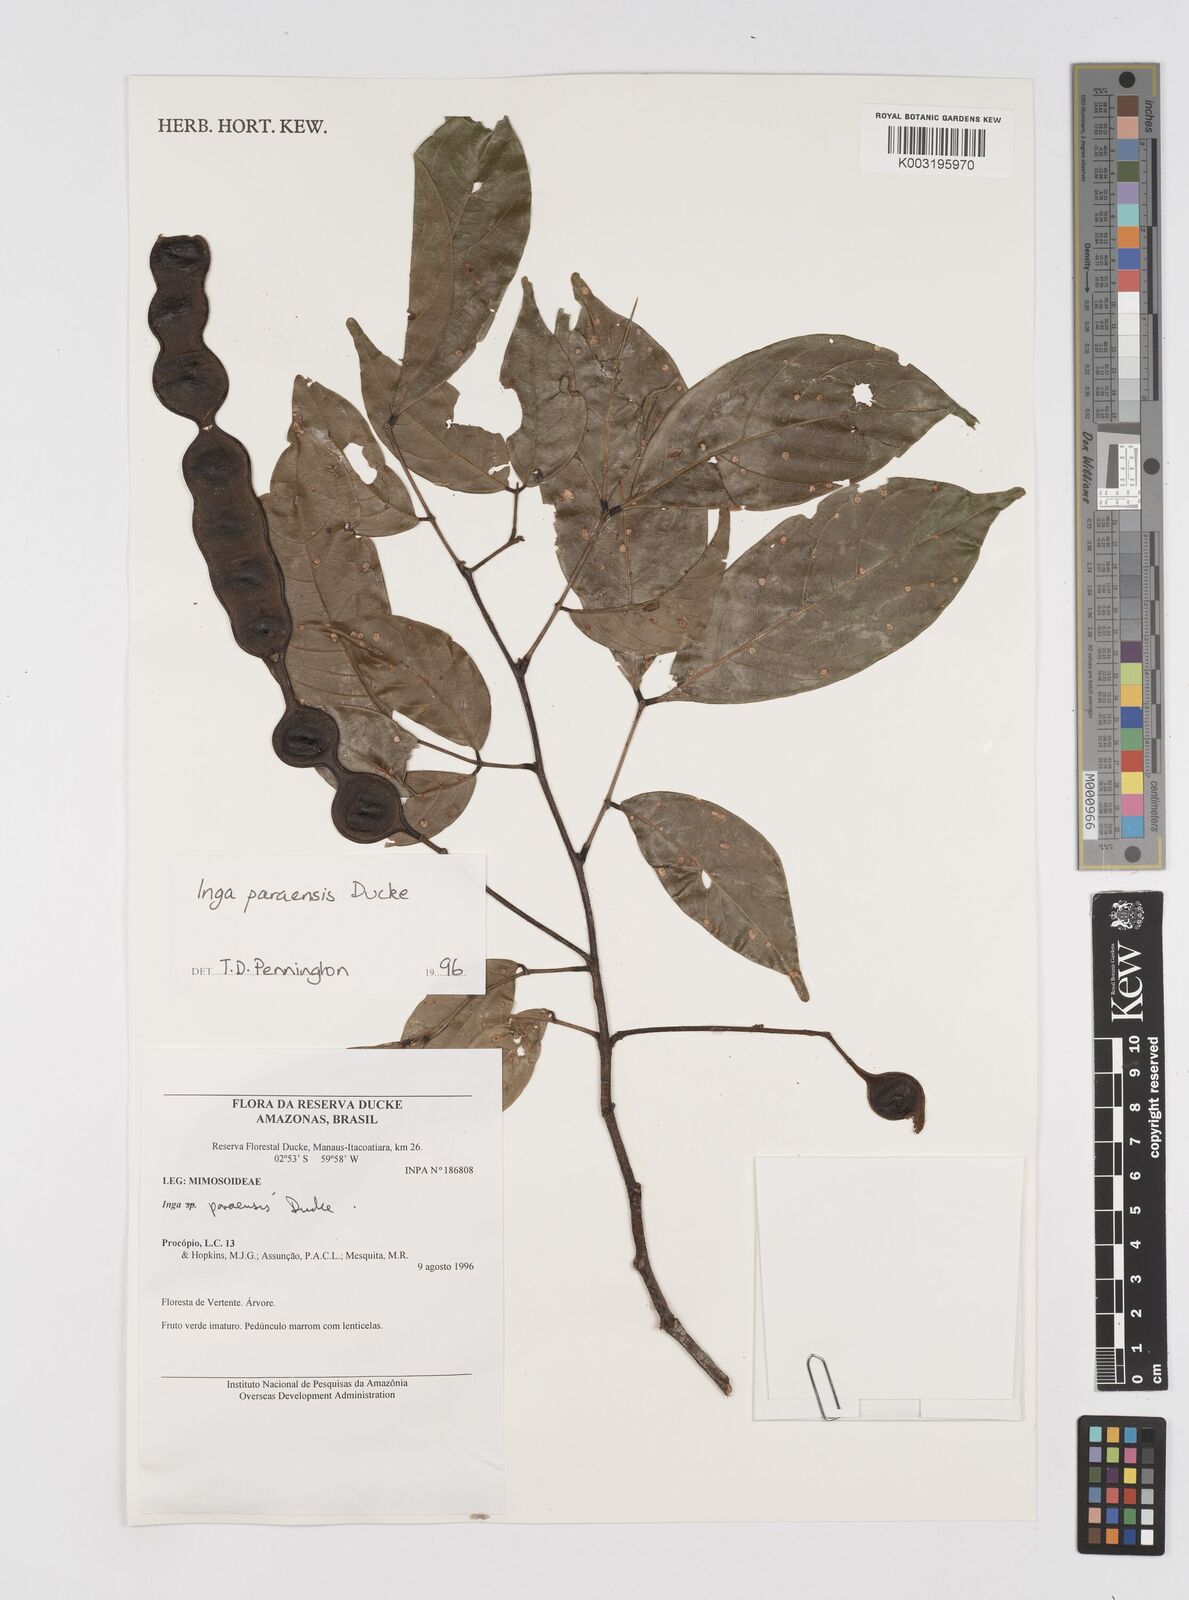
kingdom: Plantae
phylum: Tracheophyta
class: Magnoliopsida
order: Fabales
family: Fabaceae
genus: Inga
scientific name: Inga paraensis
